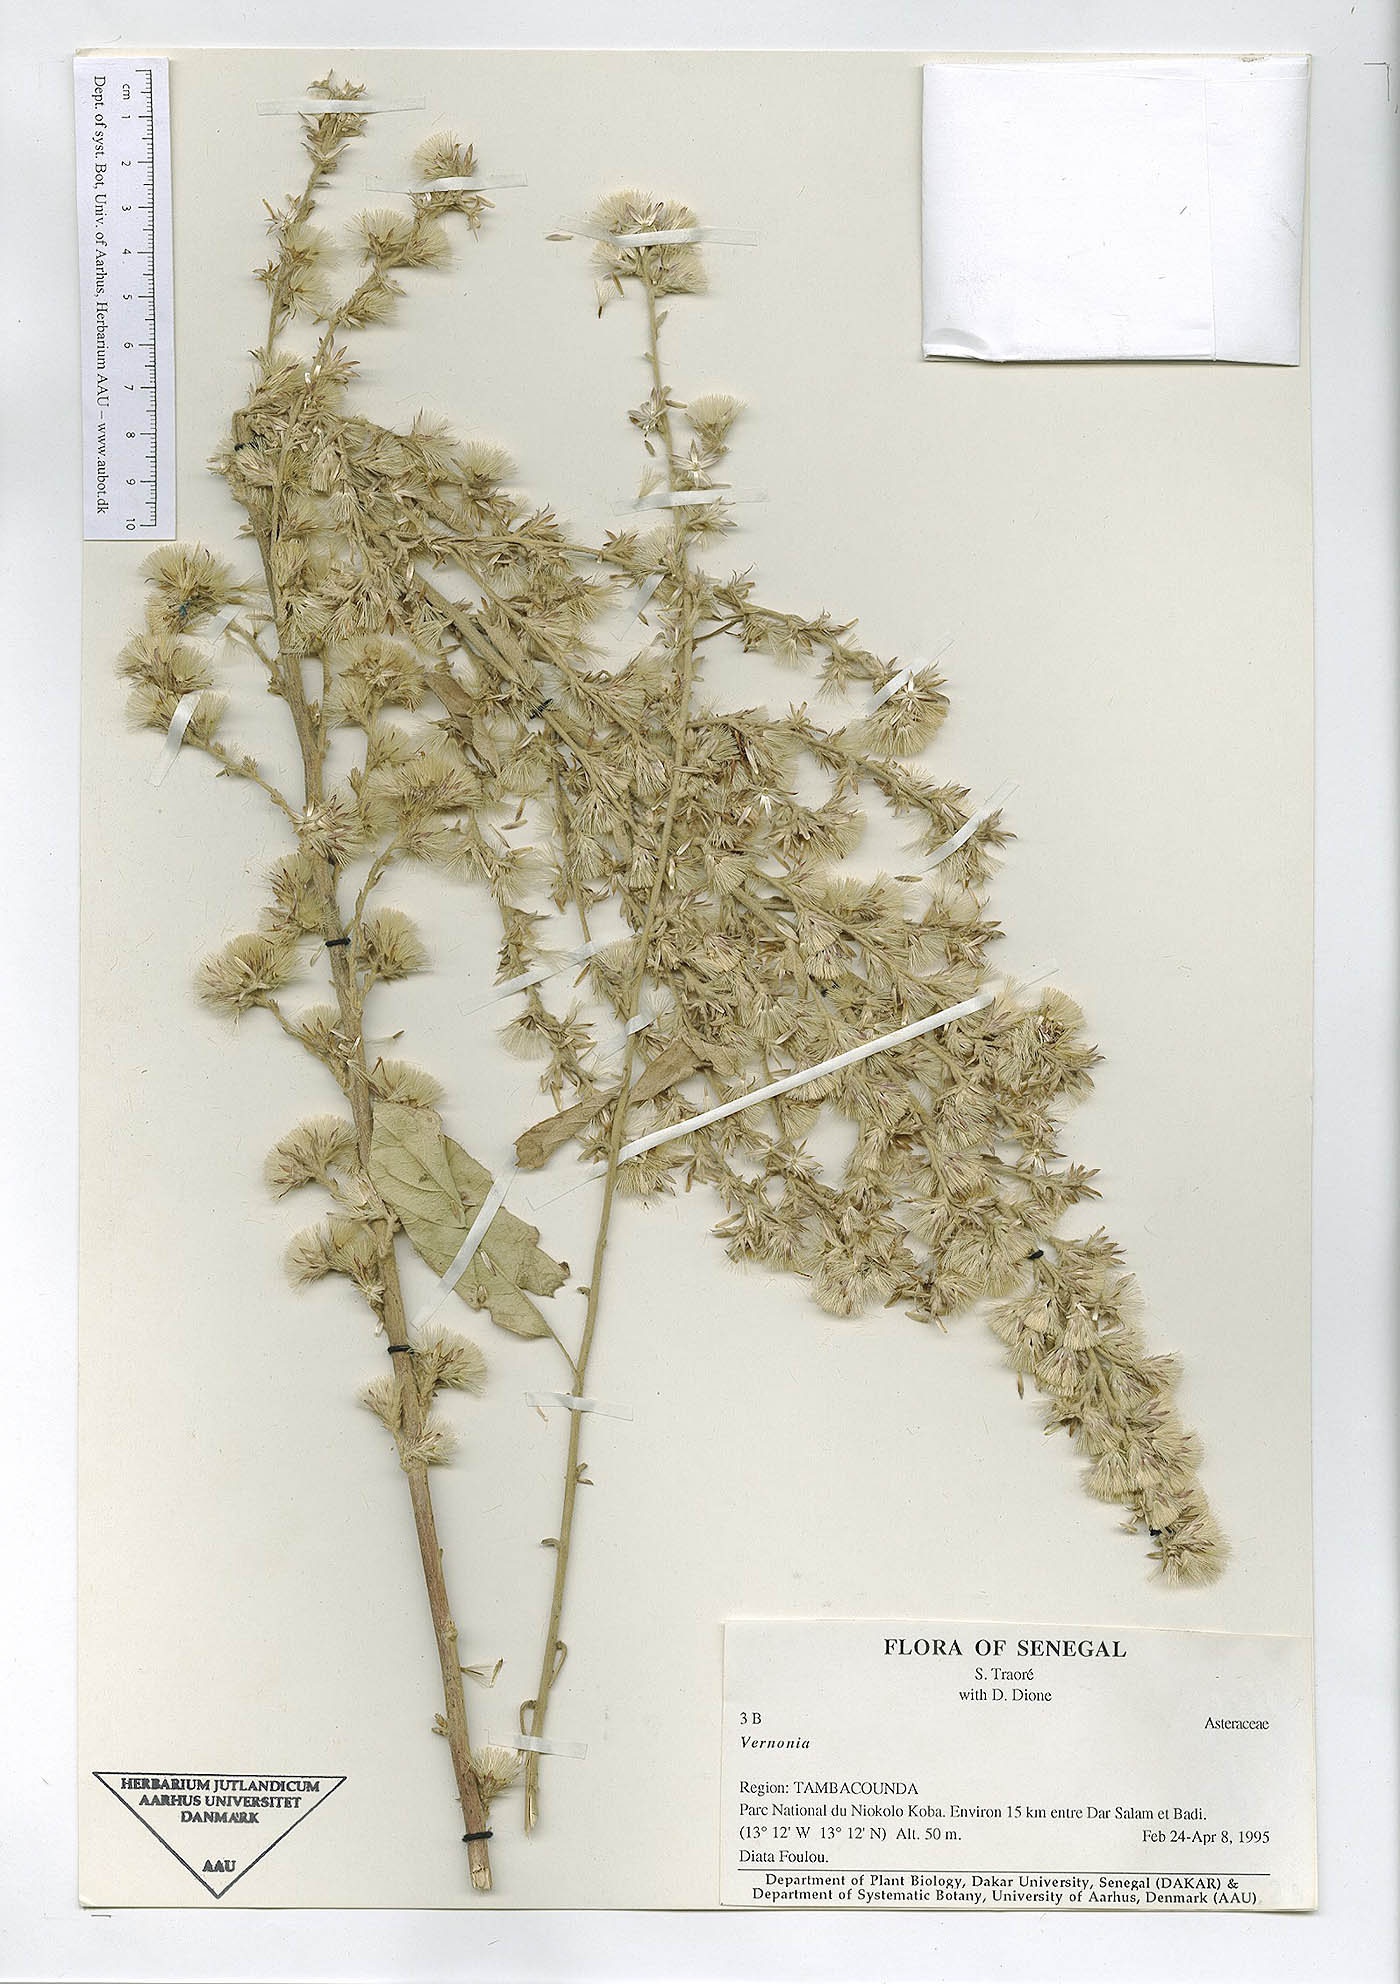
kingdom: Plantae
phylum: Tracheophyta
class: Magnoliopsida
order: Asterales
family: Asteraceae
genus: Vernonia
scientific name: Vernonia
